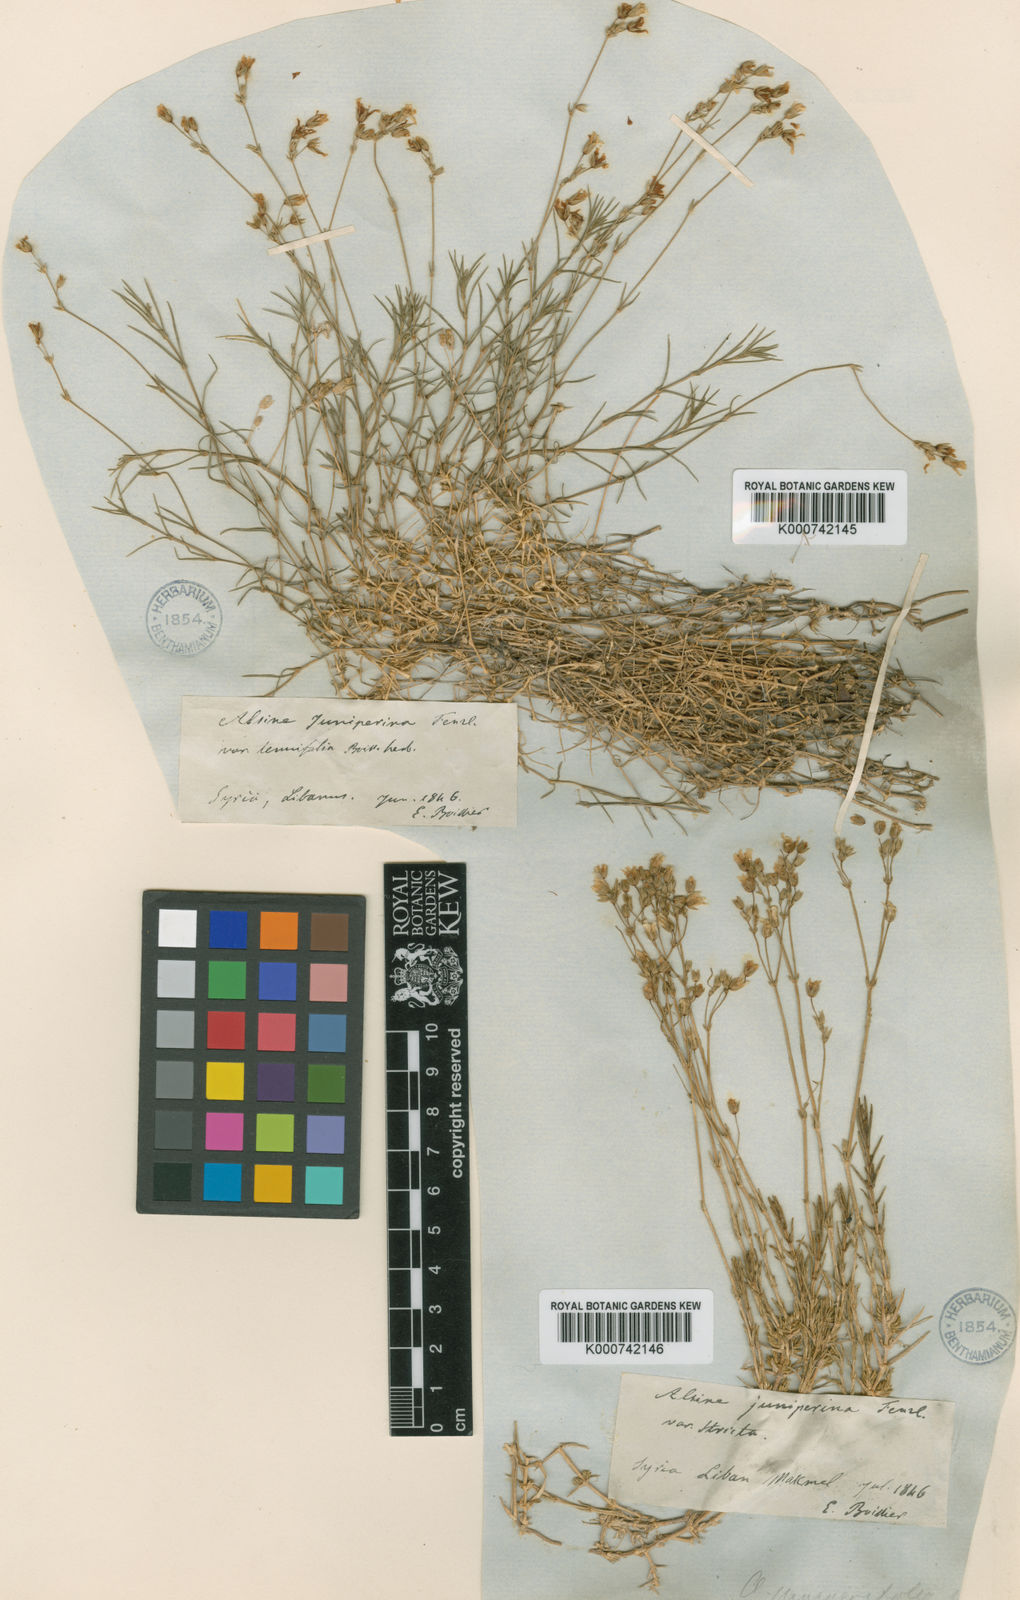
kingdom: Plantae
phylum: Tracheophyta
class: Magnoliopsida
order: Caryophyllales
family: Caryophyllaceae
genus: Minuartia
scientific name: Minuartia
